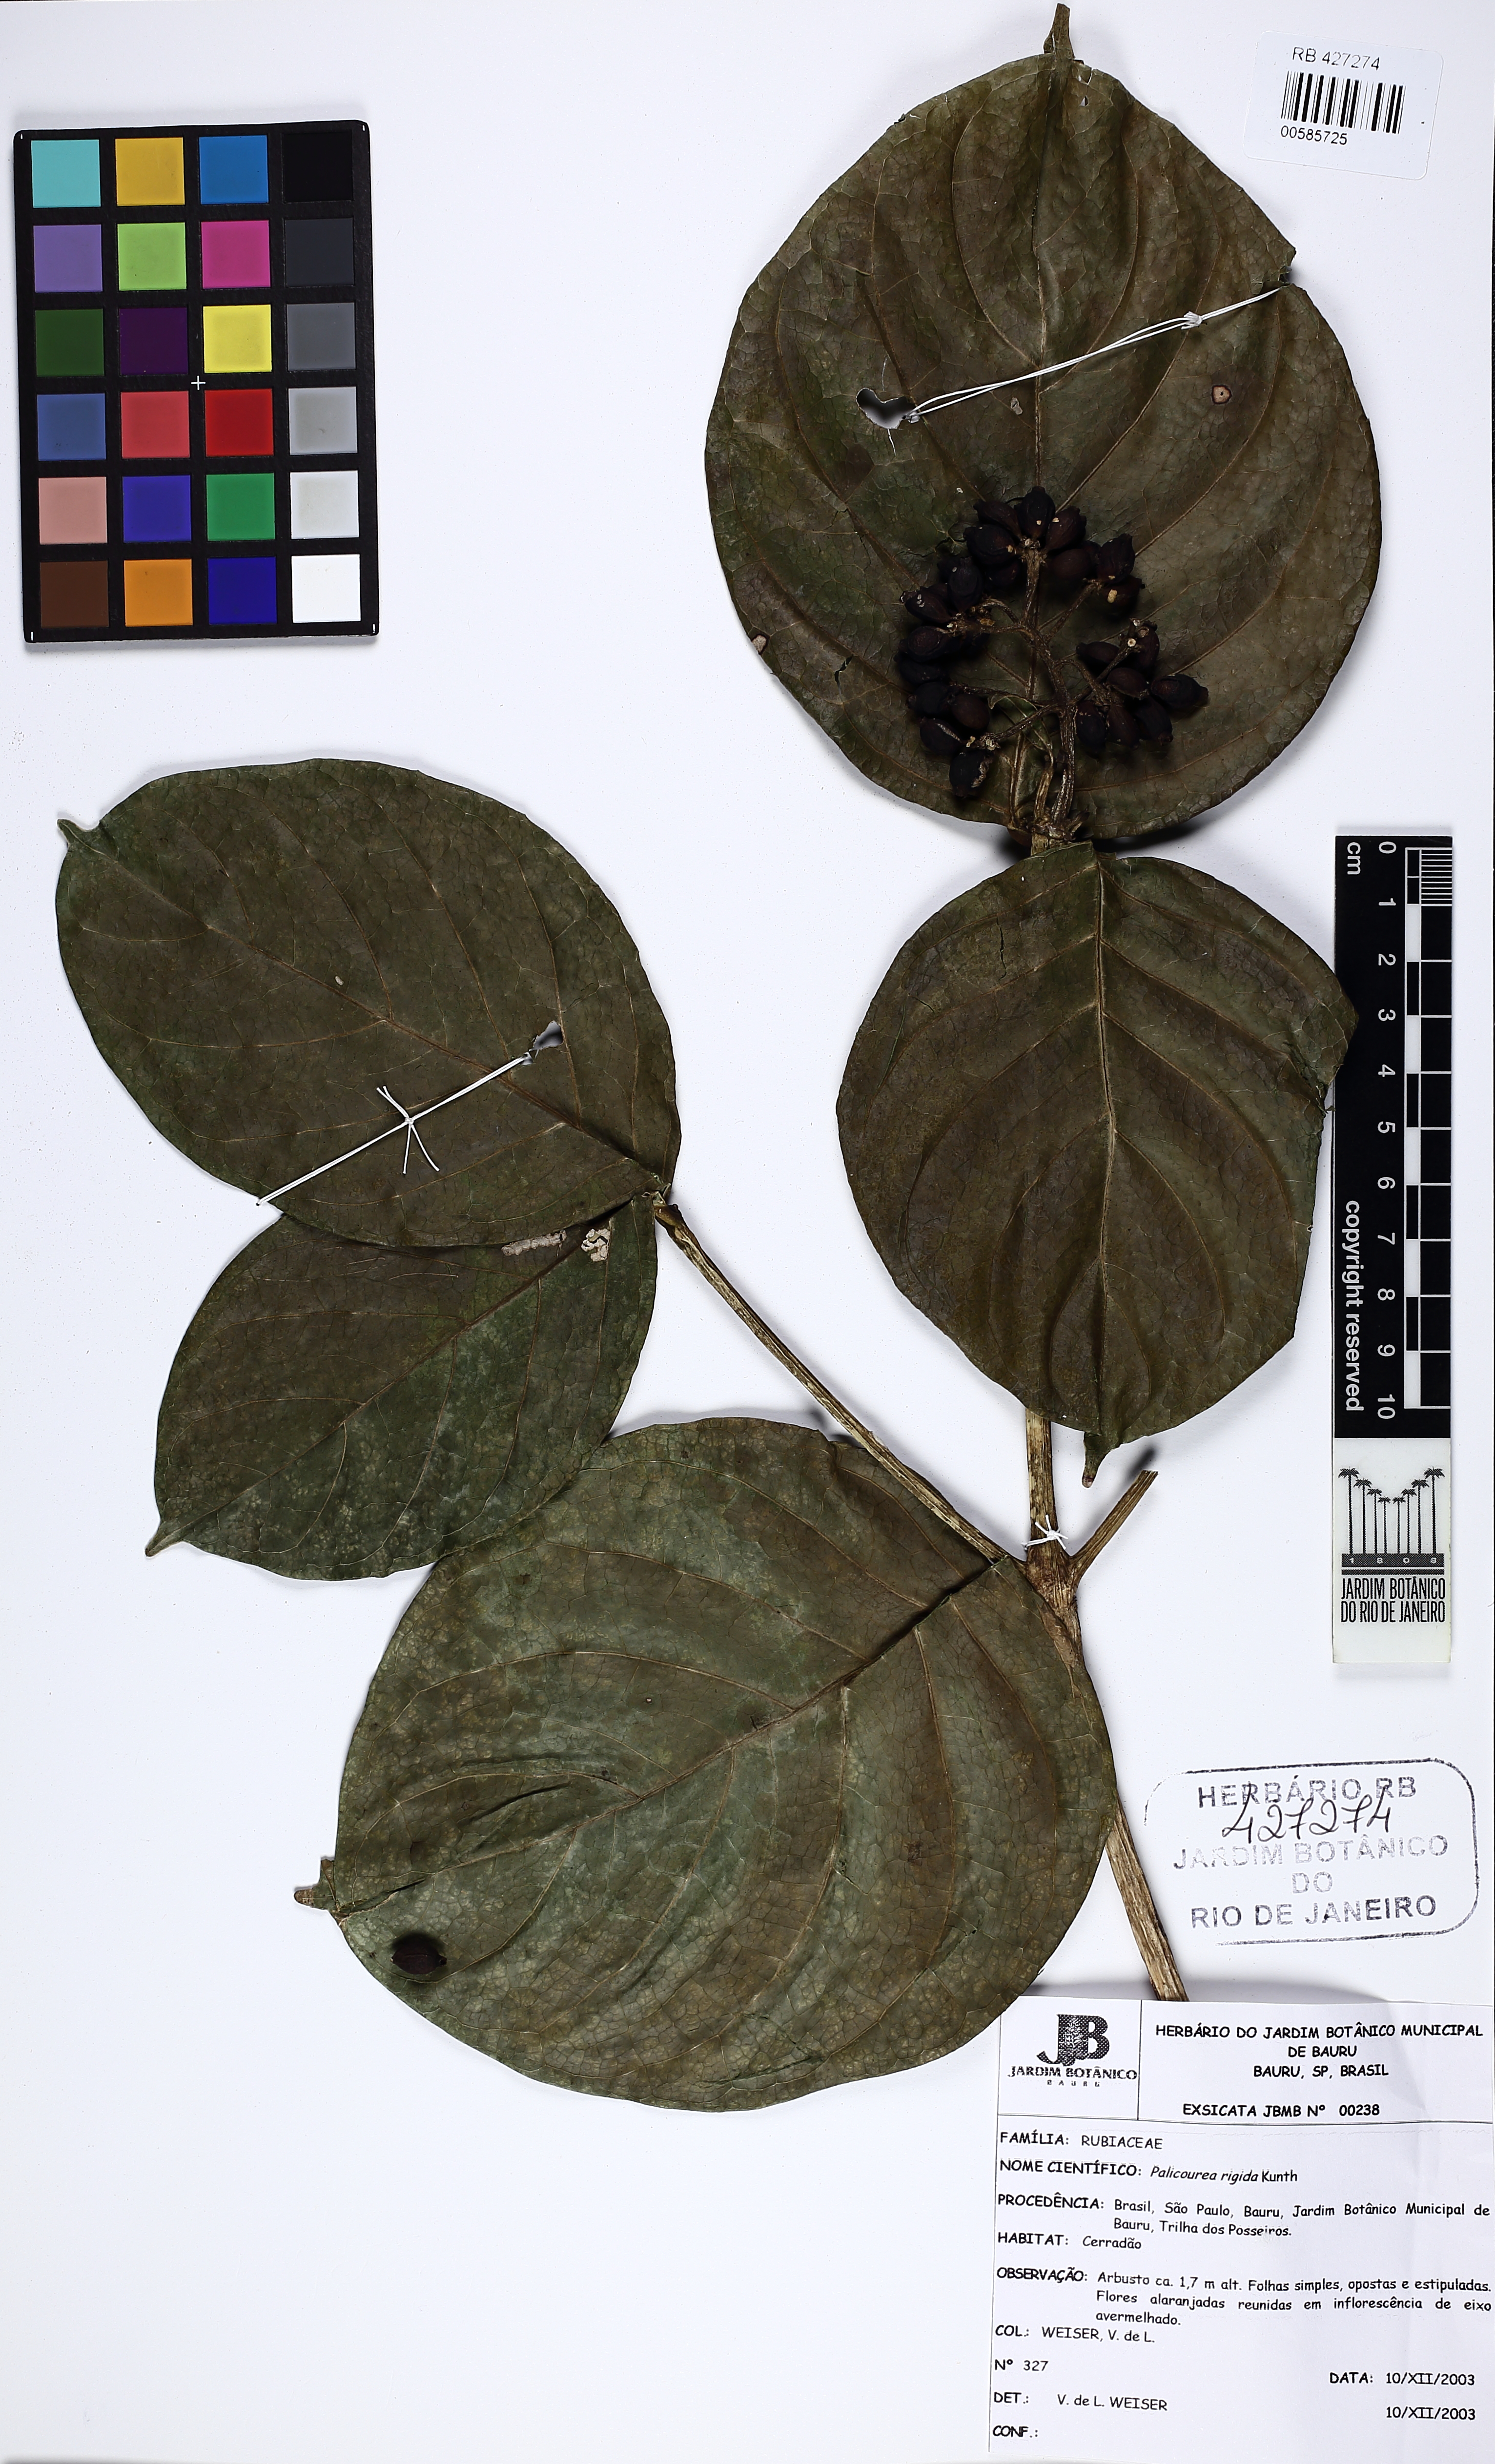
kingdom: Plantae
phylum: Tracheophyta
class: Magnoliopsida
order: Gentianales
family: Rubiaceae
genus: Coussarea
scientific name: Coussarea hydrangeifolia
